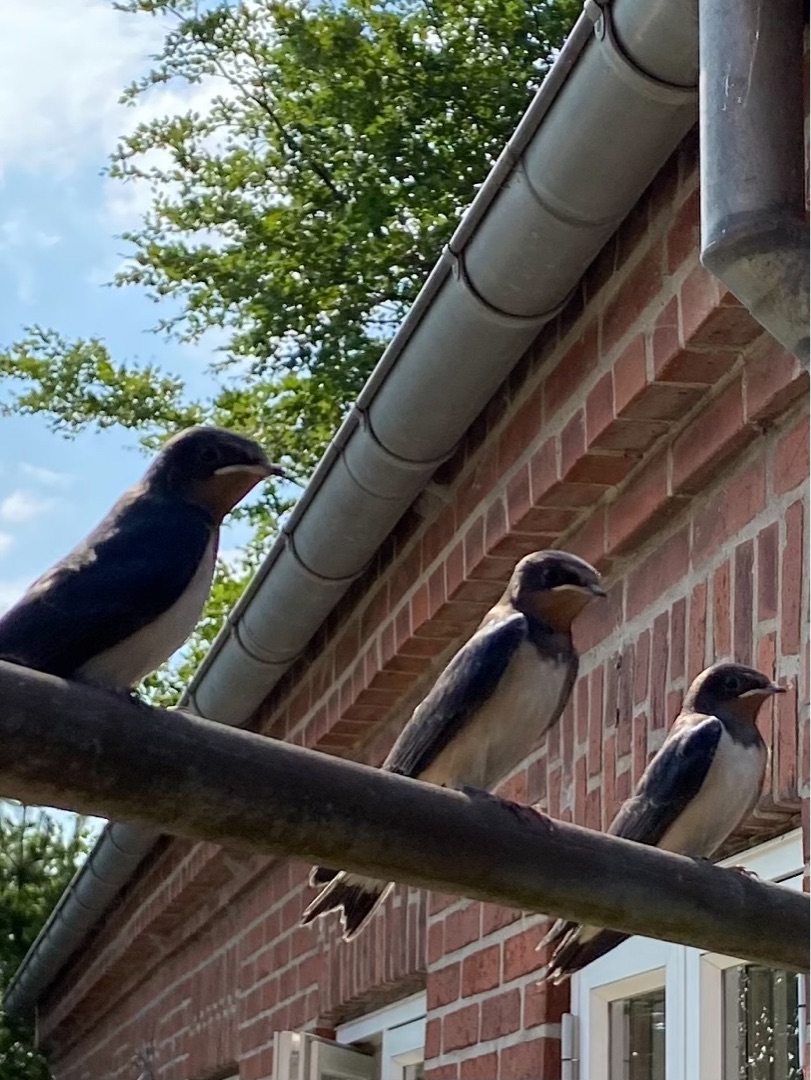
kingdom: Animalia
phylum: Chordata
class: Aves
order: Passeriformes
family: Hirundinidae
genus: Hirundo
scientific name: Hirundo rustica
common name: Landsvale
